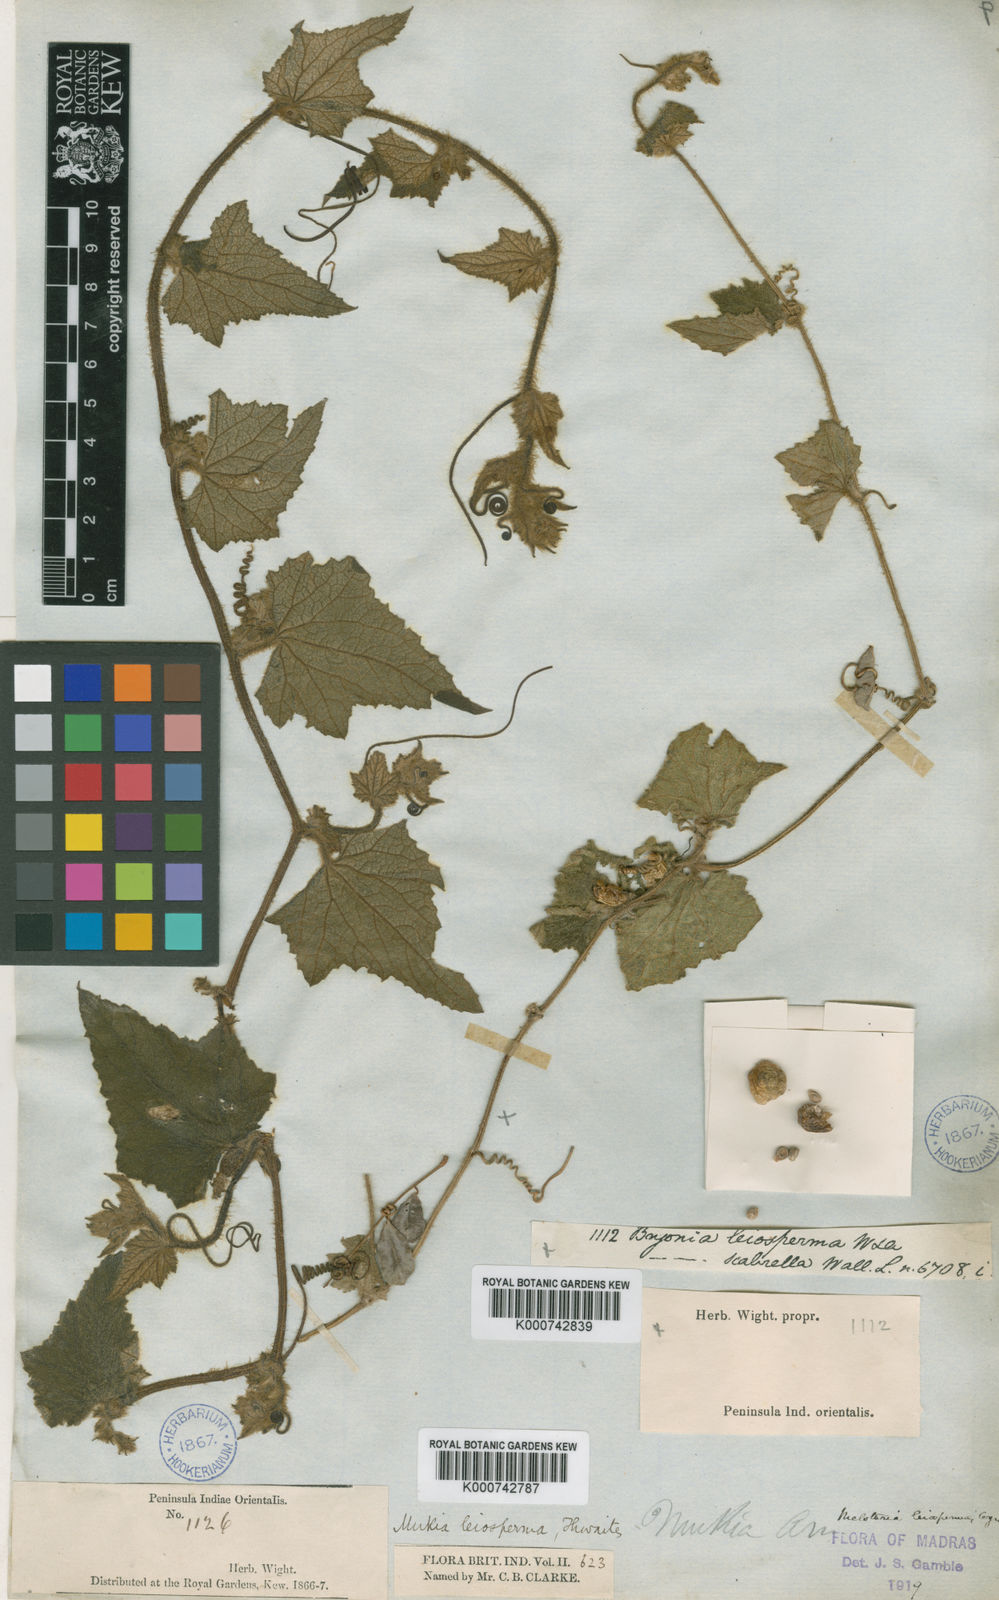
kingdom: Animalia
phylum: Arthropoda
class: Insecta
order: Lepidoptera
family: Crambidae
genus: Mukia
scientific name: Mukia
